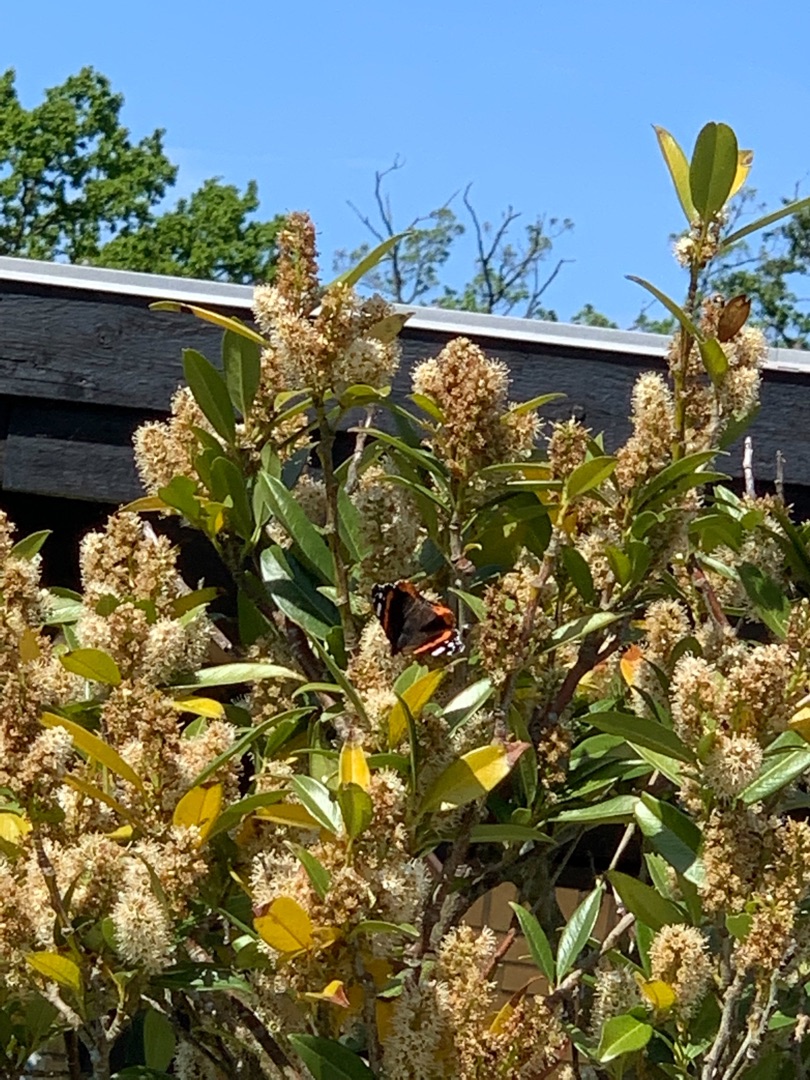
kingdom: Animalia
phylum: Arthropoda
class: Insecta
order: Lepidoptera
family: Nymphalidae
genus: Vanessa
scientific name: Vanessa atalanta
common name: Admiral
